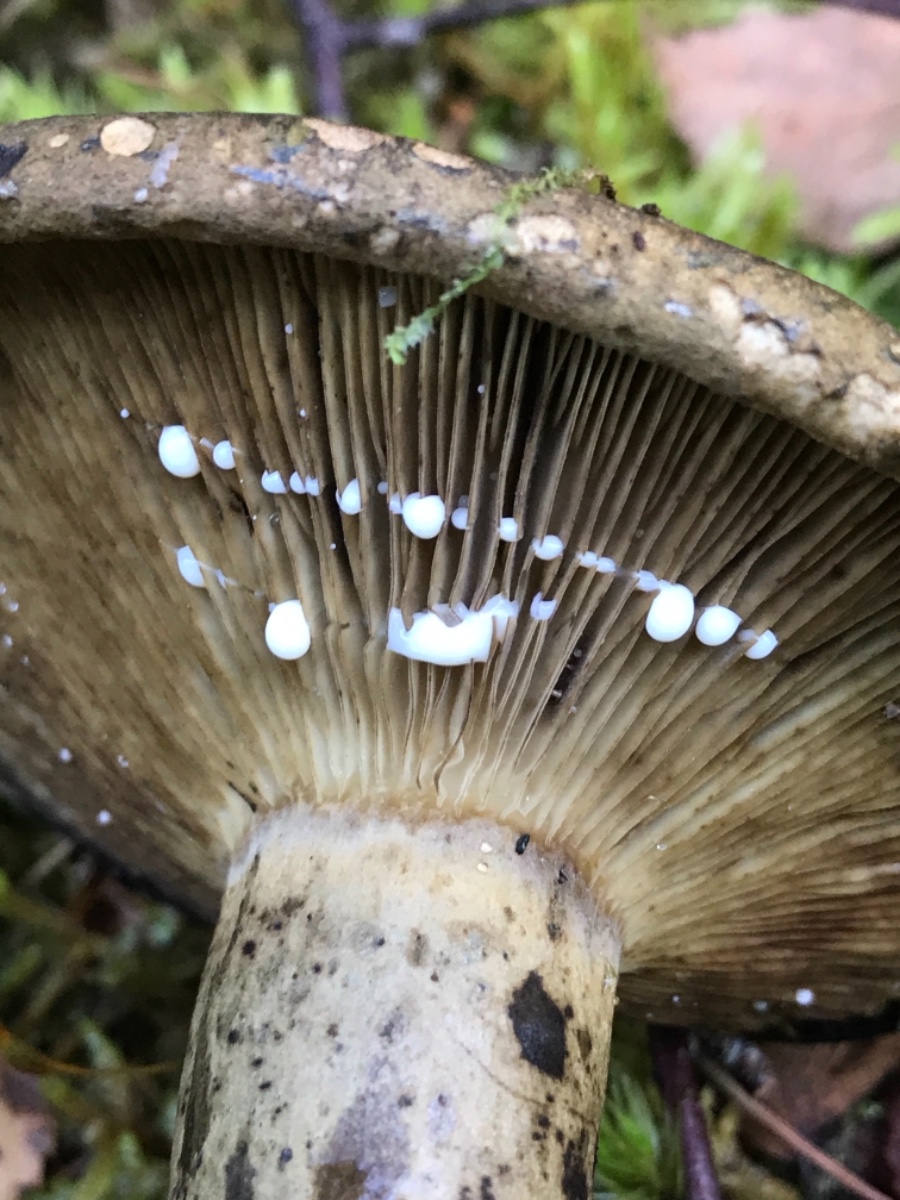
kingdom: Fungi
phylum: Basidiomycota
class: Agaricomycetes
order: Russulales
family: Russulaceae
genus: Lactarius
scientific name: Lactarius necator
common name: manddraber-mælkehat
